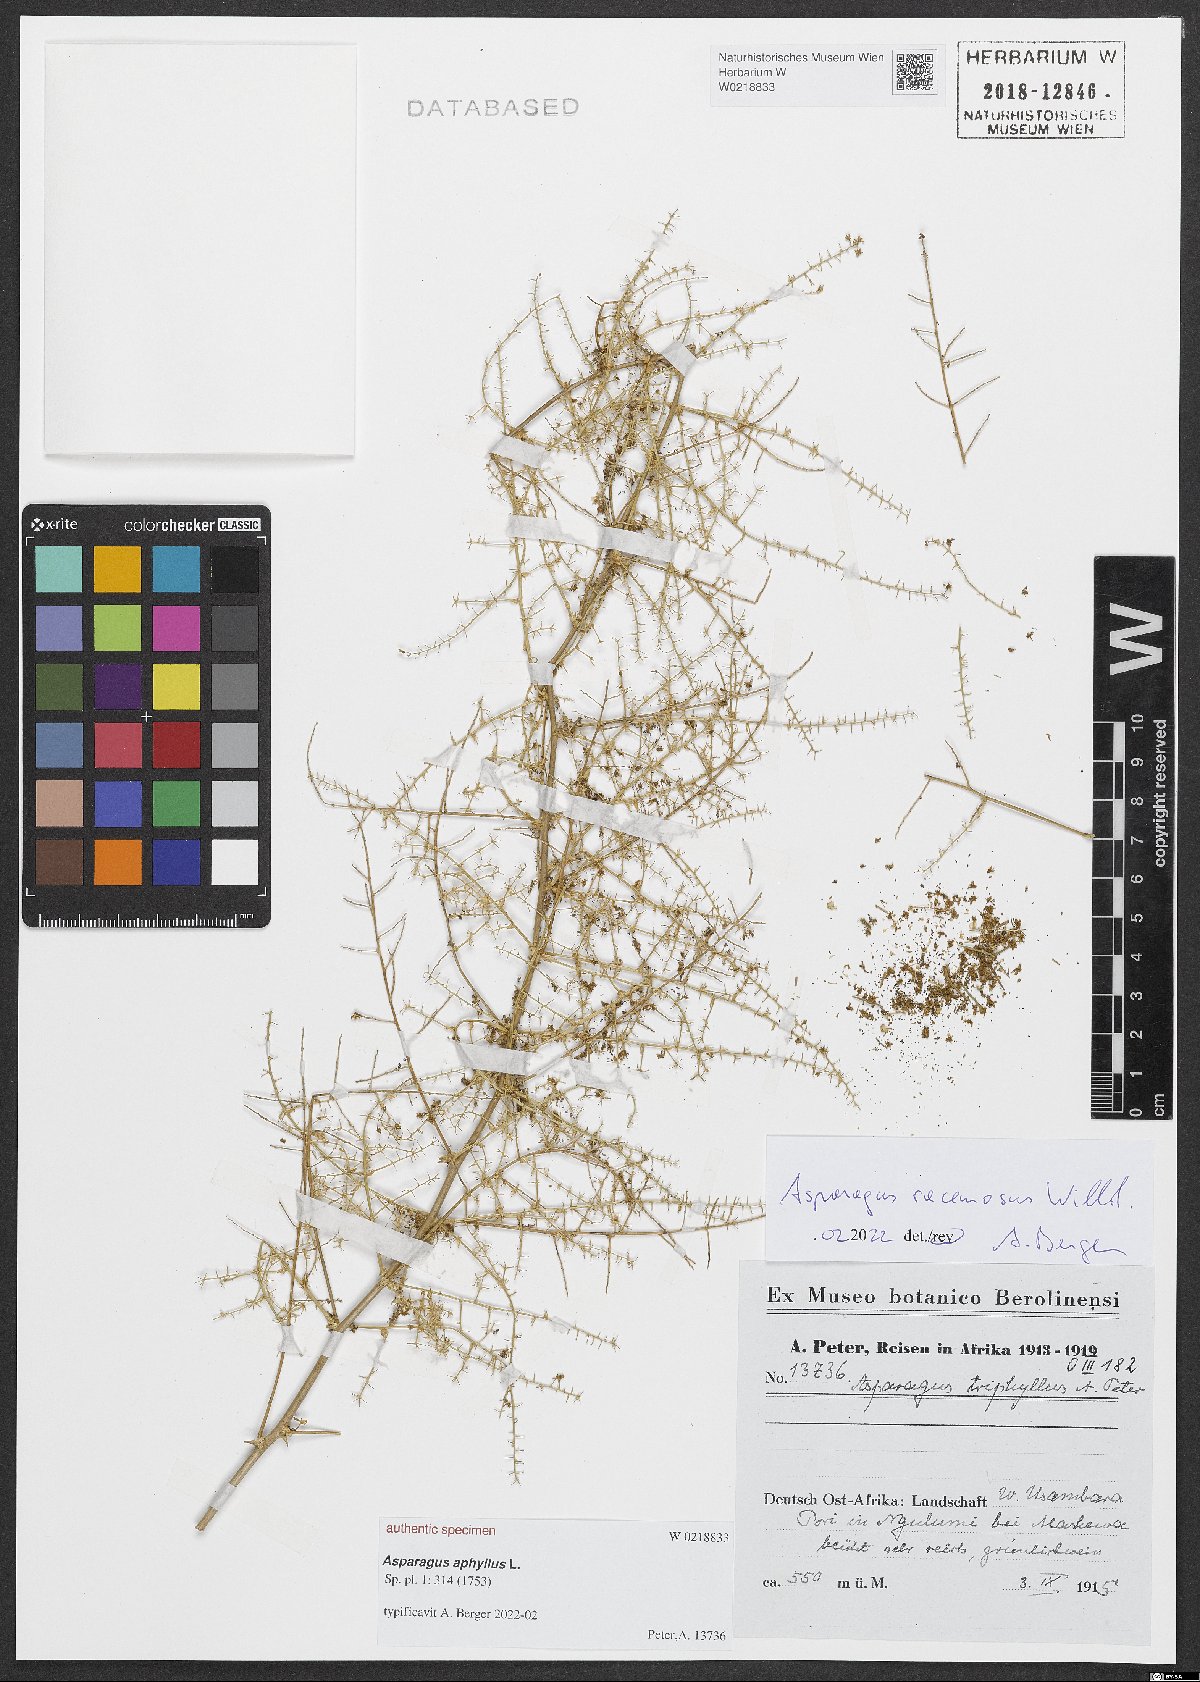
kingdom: Plantae
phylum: Tracheophyta
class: Liliopsida
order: Asparagales
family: Asparagaceae
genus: Asparagus
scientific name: Asparagus aphyllus
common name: Mediterranean asparagus
